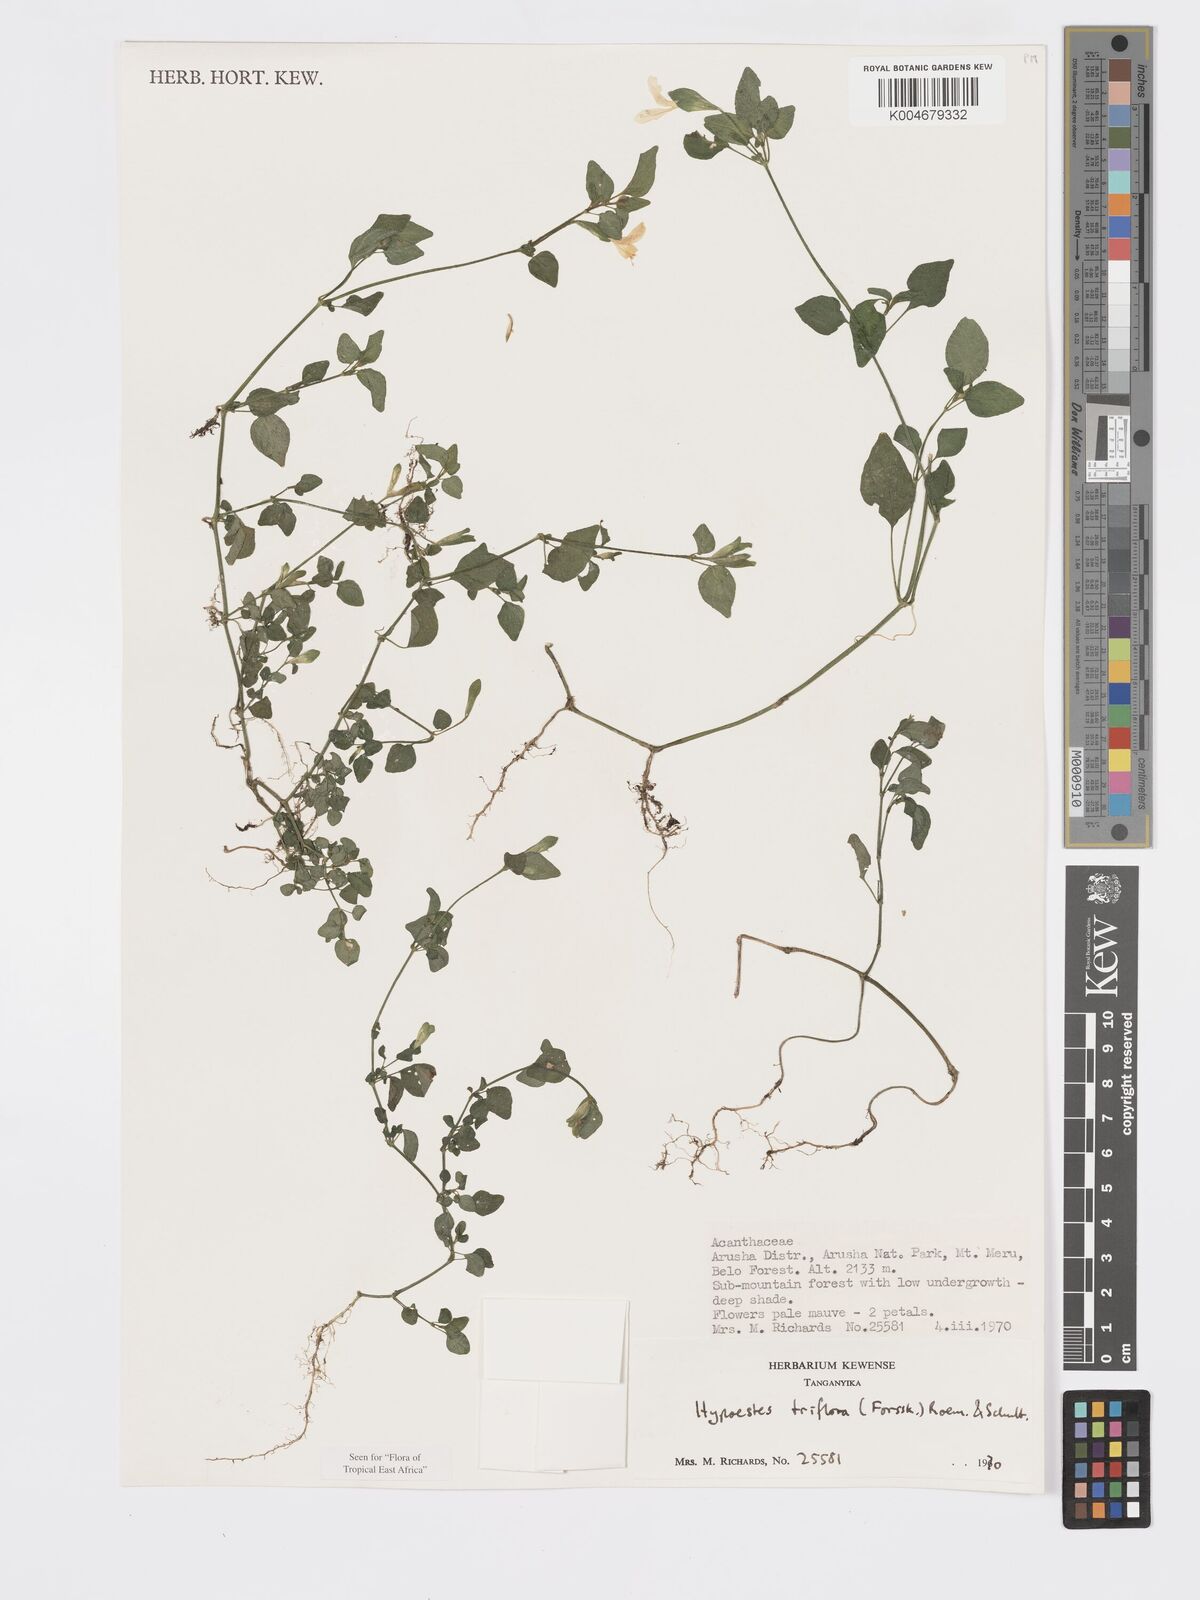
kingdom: Plantae
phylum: Tracheophyta
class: Magnoliopsida
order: Lamiales
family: Acanthaceae
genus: Hypoestes
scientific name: Hypoestes triflora
